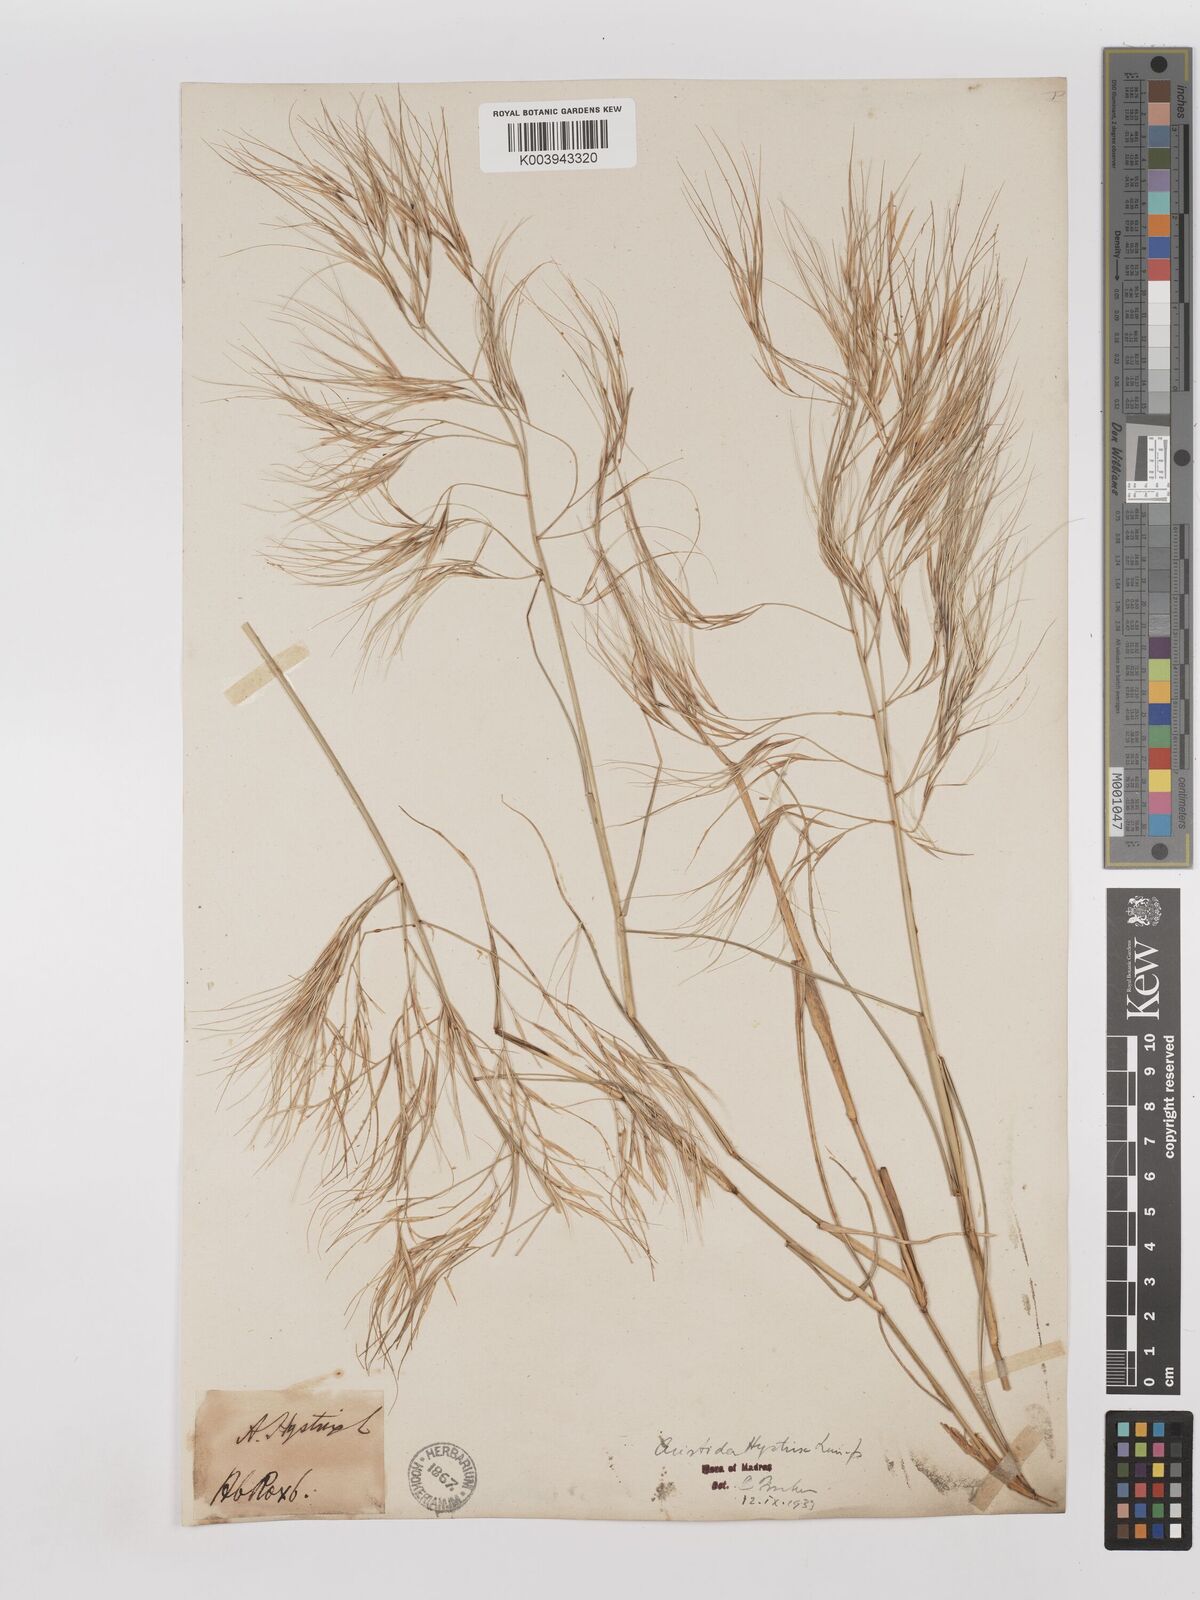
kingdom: Plantae
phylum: Tracheophyta
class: Liliopsida
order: Poales
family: Poaceae
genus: Aristida
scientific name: Aristida hystrix
